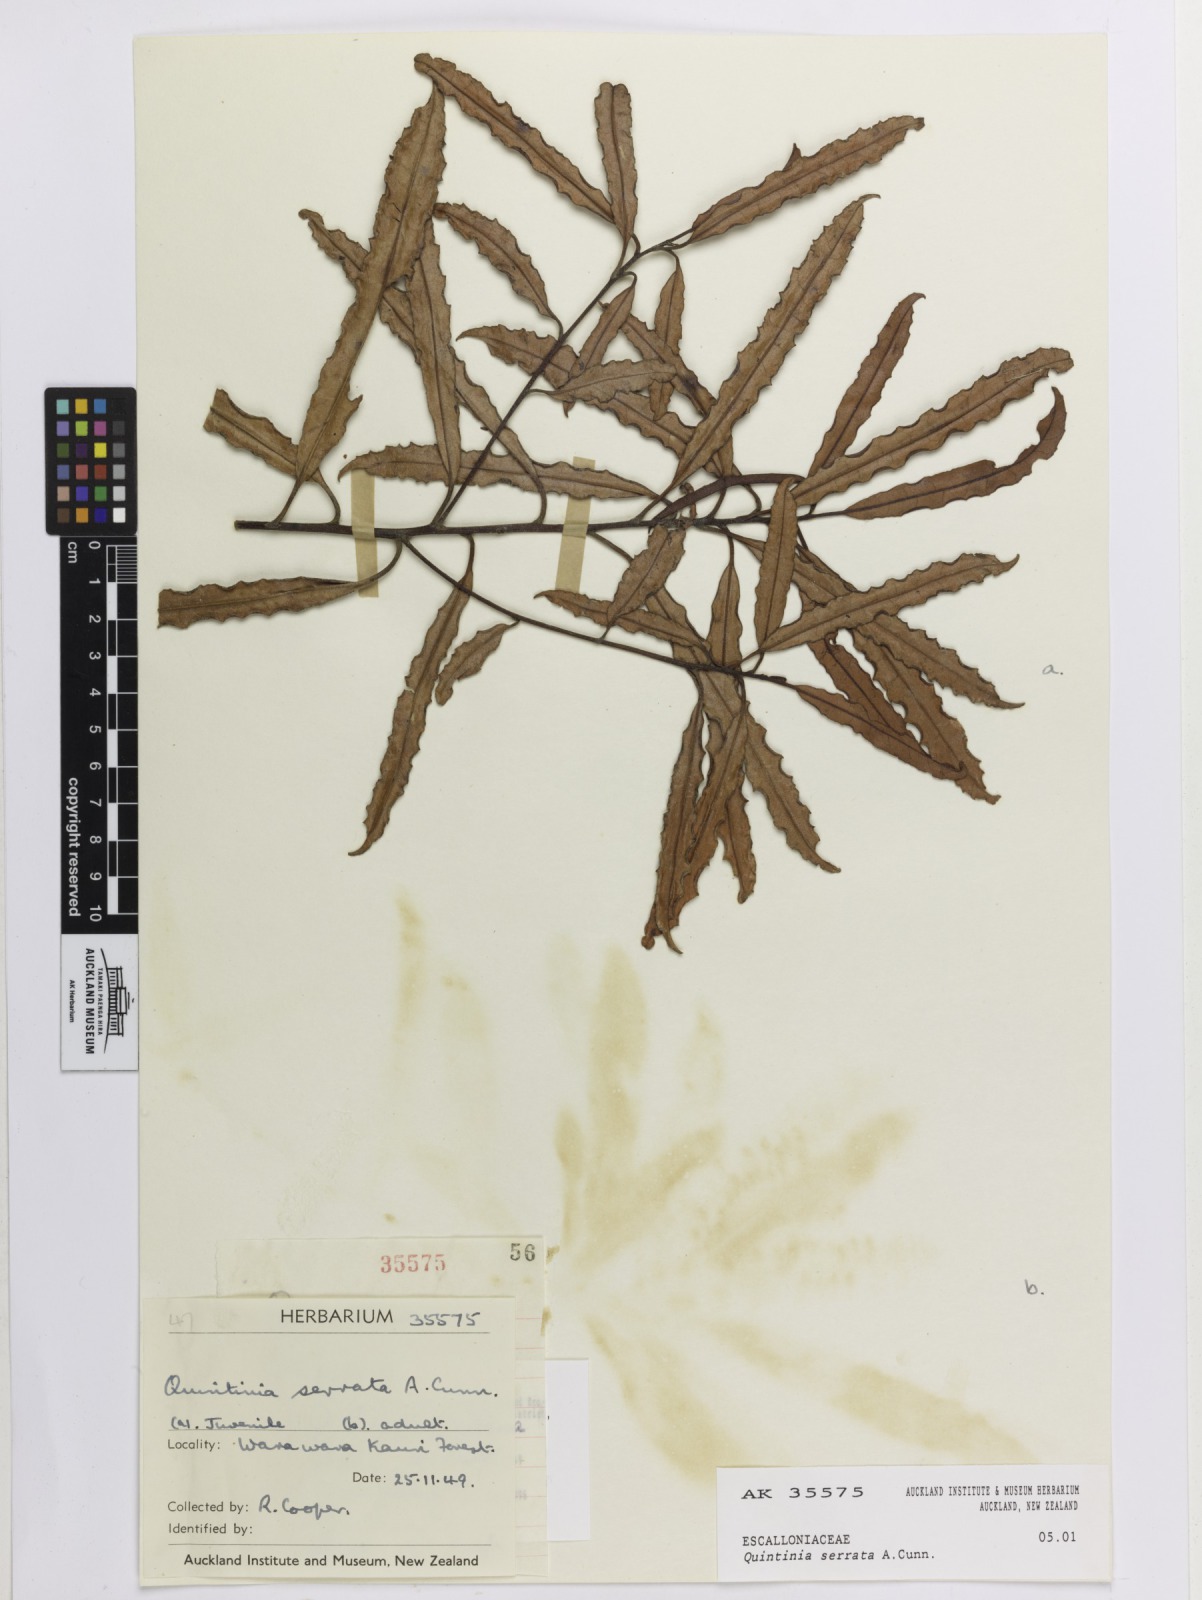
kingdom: Plantae
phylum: Tracheophyta
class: Magnoliopsida
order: Paracryphiales
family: Paracryphiaceae
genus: Quintinia
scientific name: Quintinia serrata
